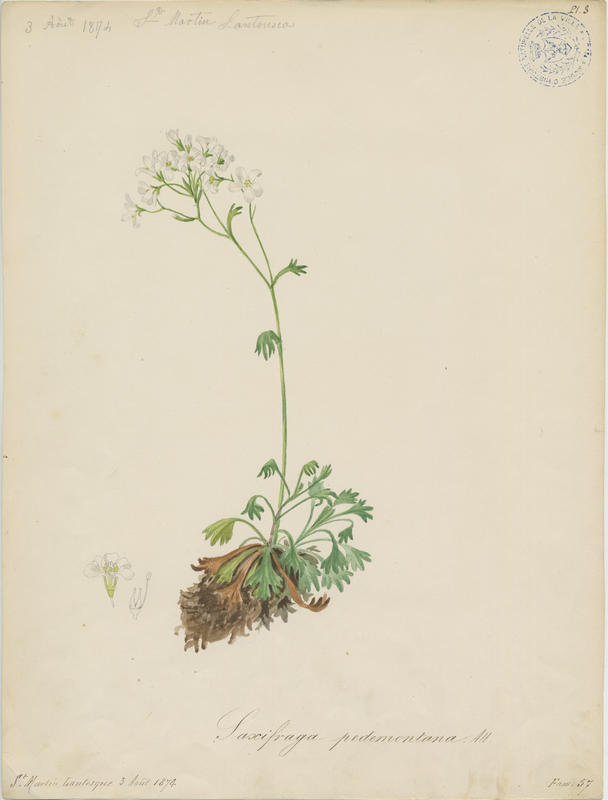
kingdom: Plantae
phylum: Tracheophyta
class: Magnoliopsida
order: Saxifragales
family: Saxifragaceae
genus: Saxifraga
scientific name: Saxifraga pedemontana
